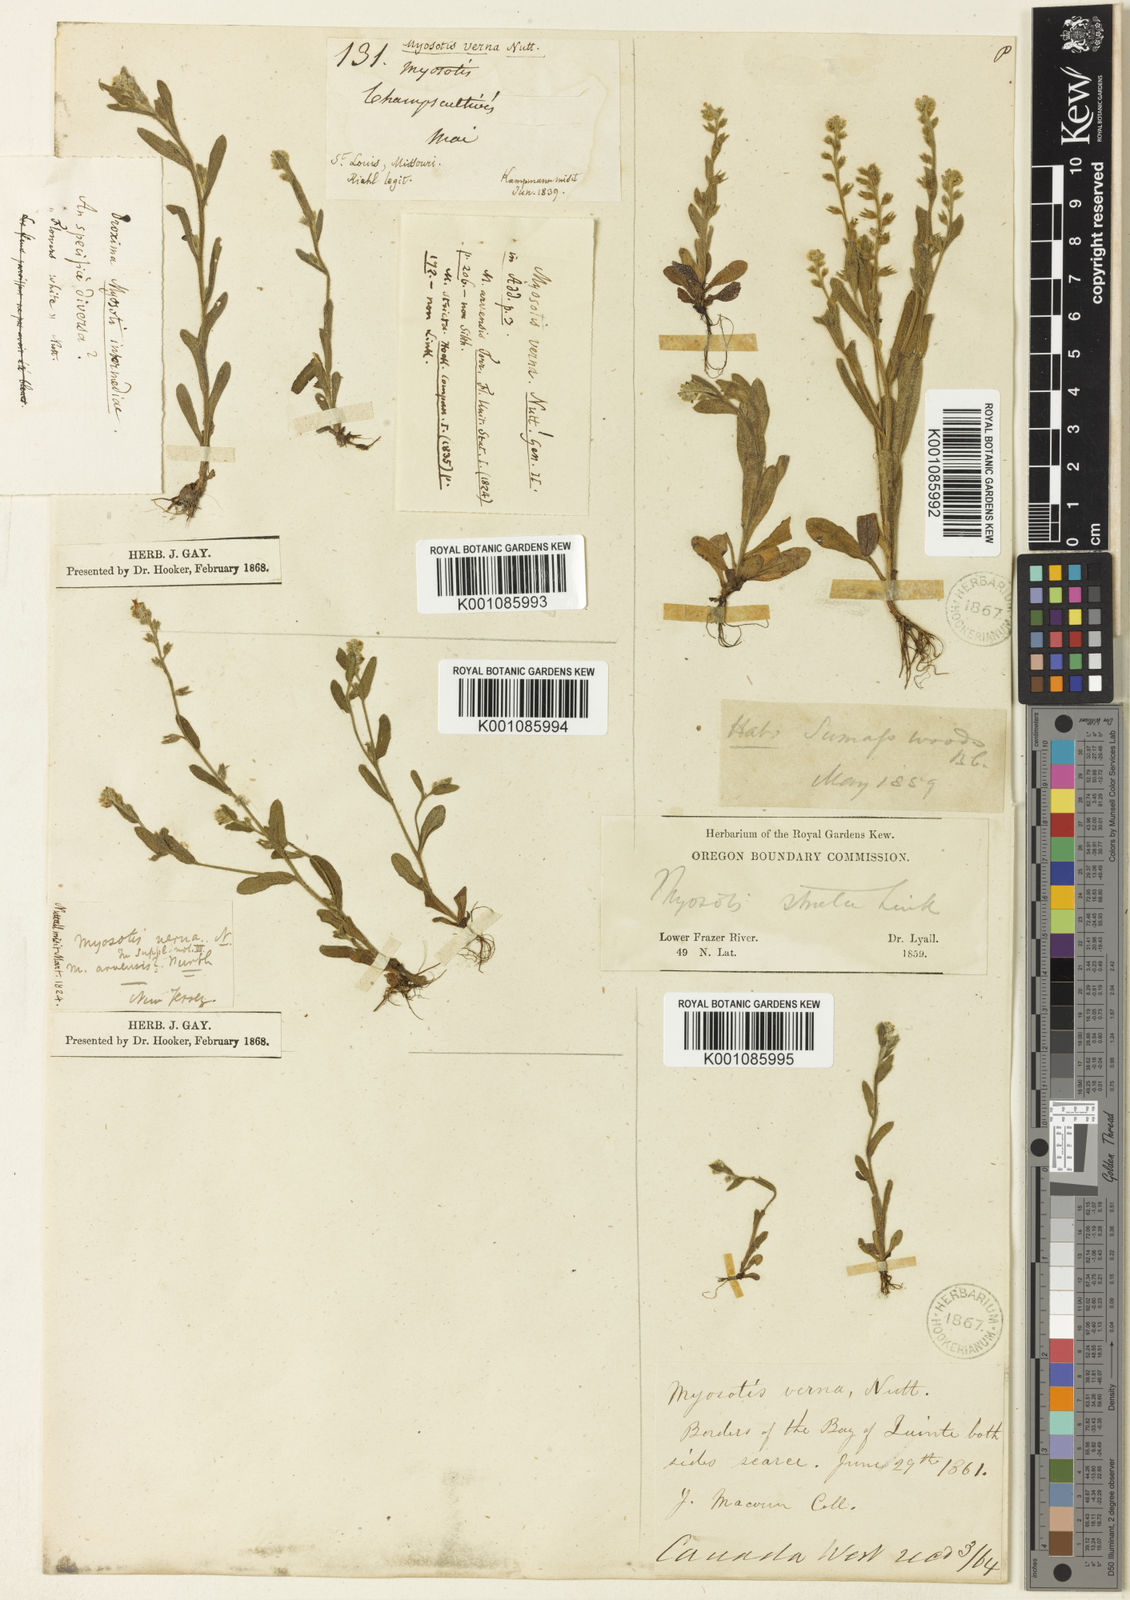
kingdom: Plantae
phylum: Tracheophyta
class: Magnoliopsida
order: Boraginales
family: Boraginaceae
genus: Myosotis
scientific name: Myosotis verna
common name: Early forget-me-not
